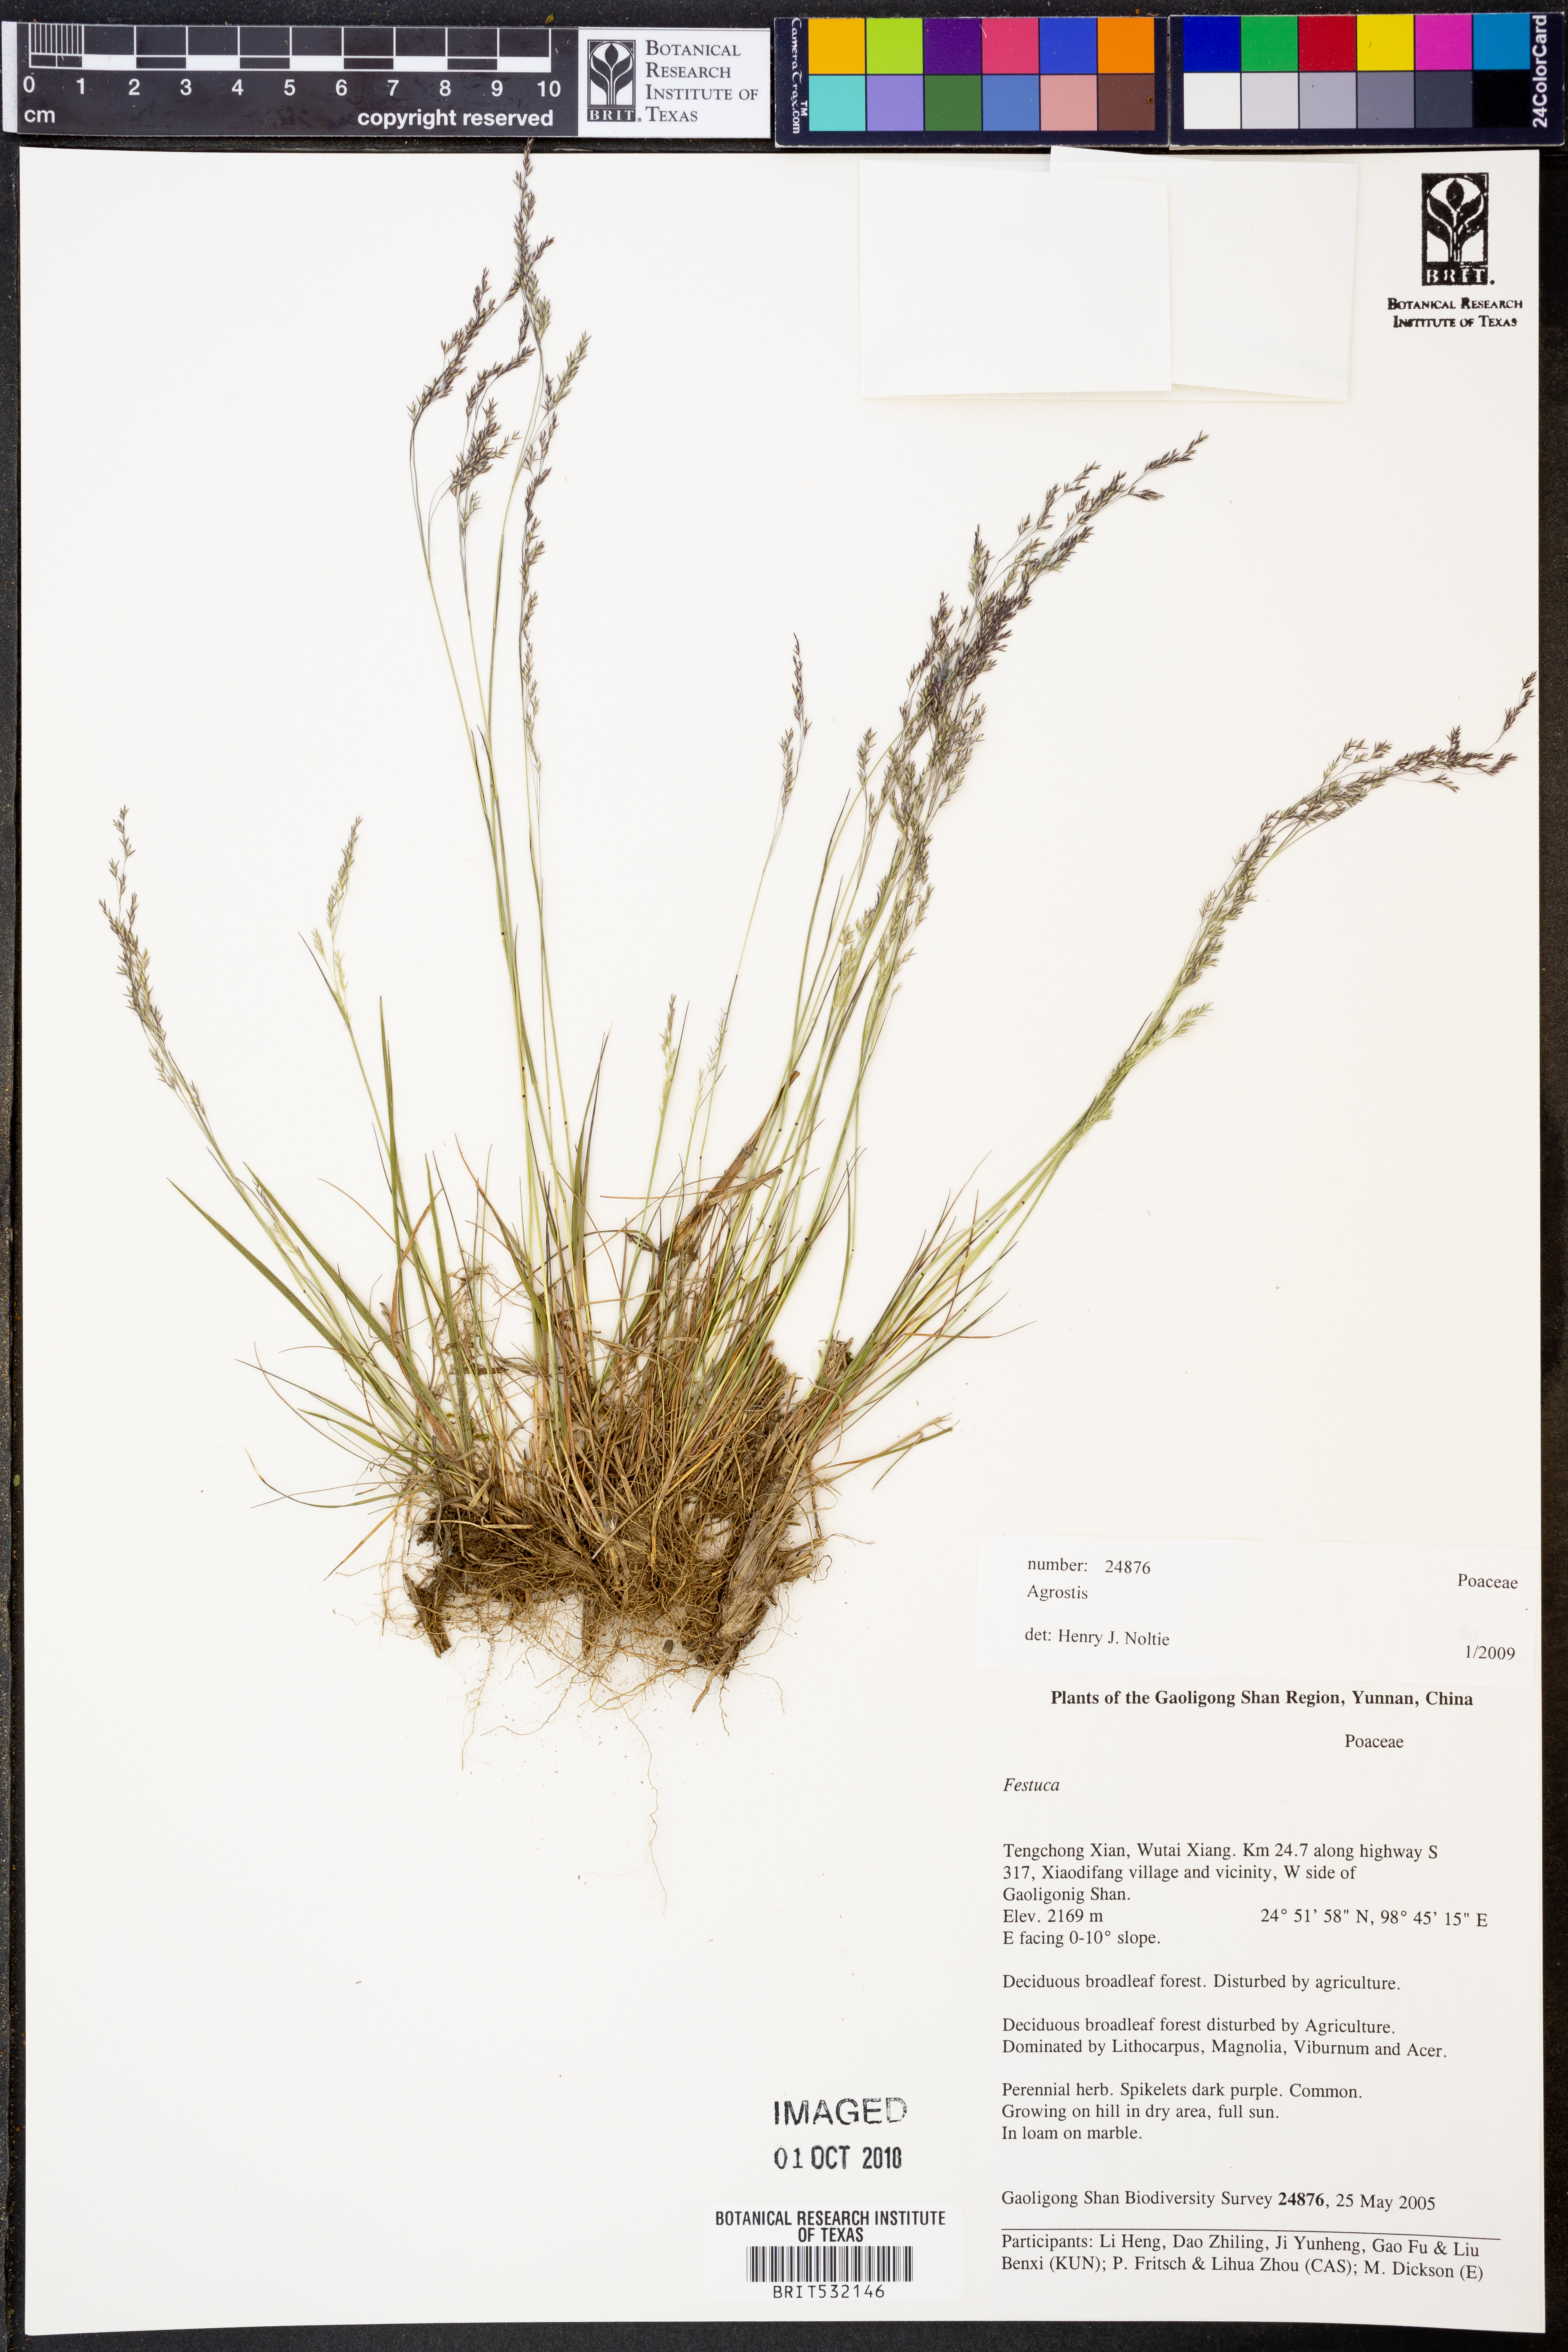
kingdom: Plantae
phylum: Tracheophyta
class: Liliopsida
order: Poales
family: Poaceae
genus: Agrostis
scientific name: Agrostis
